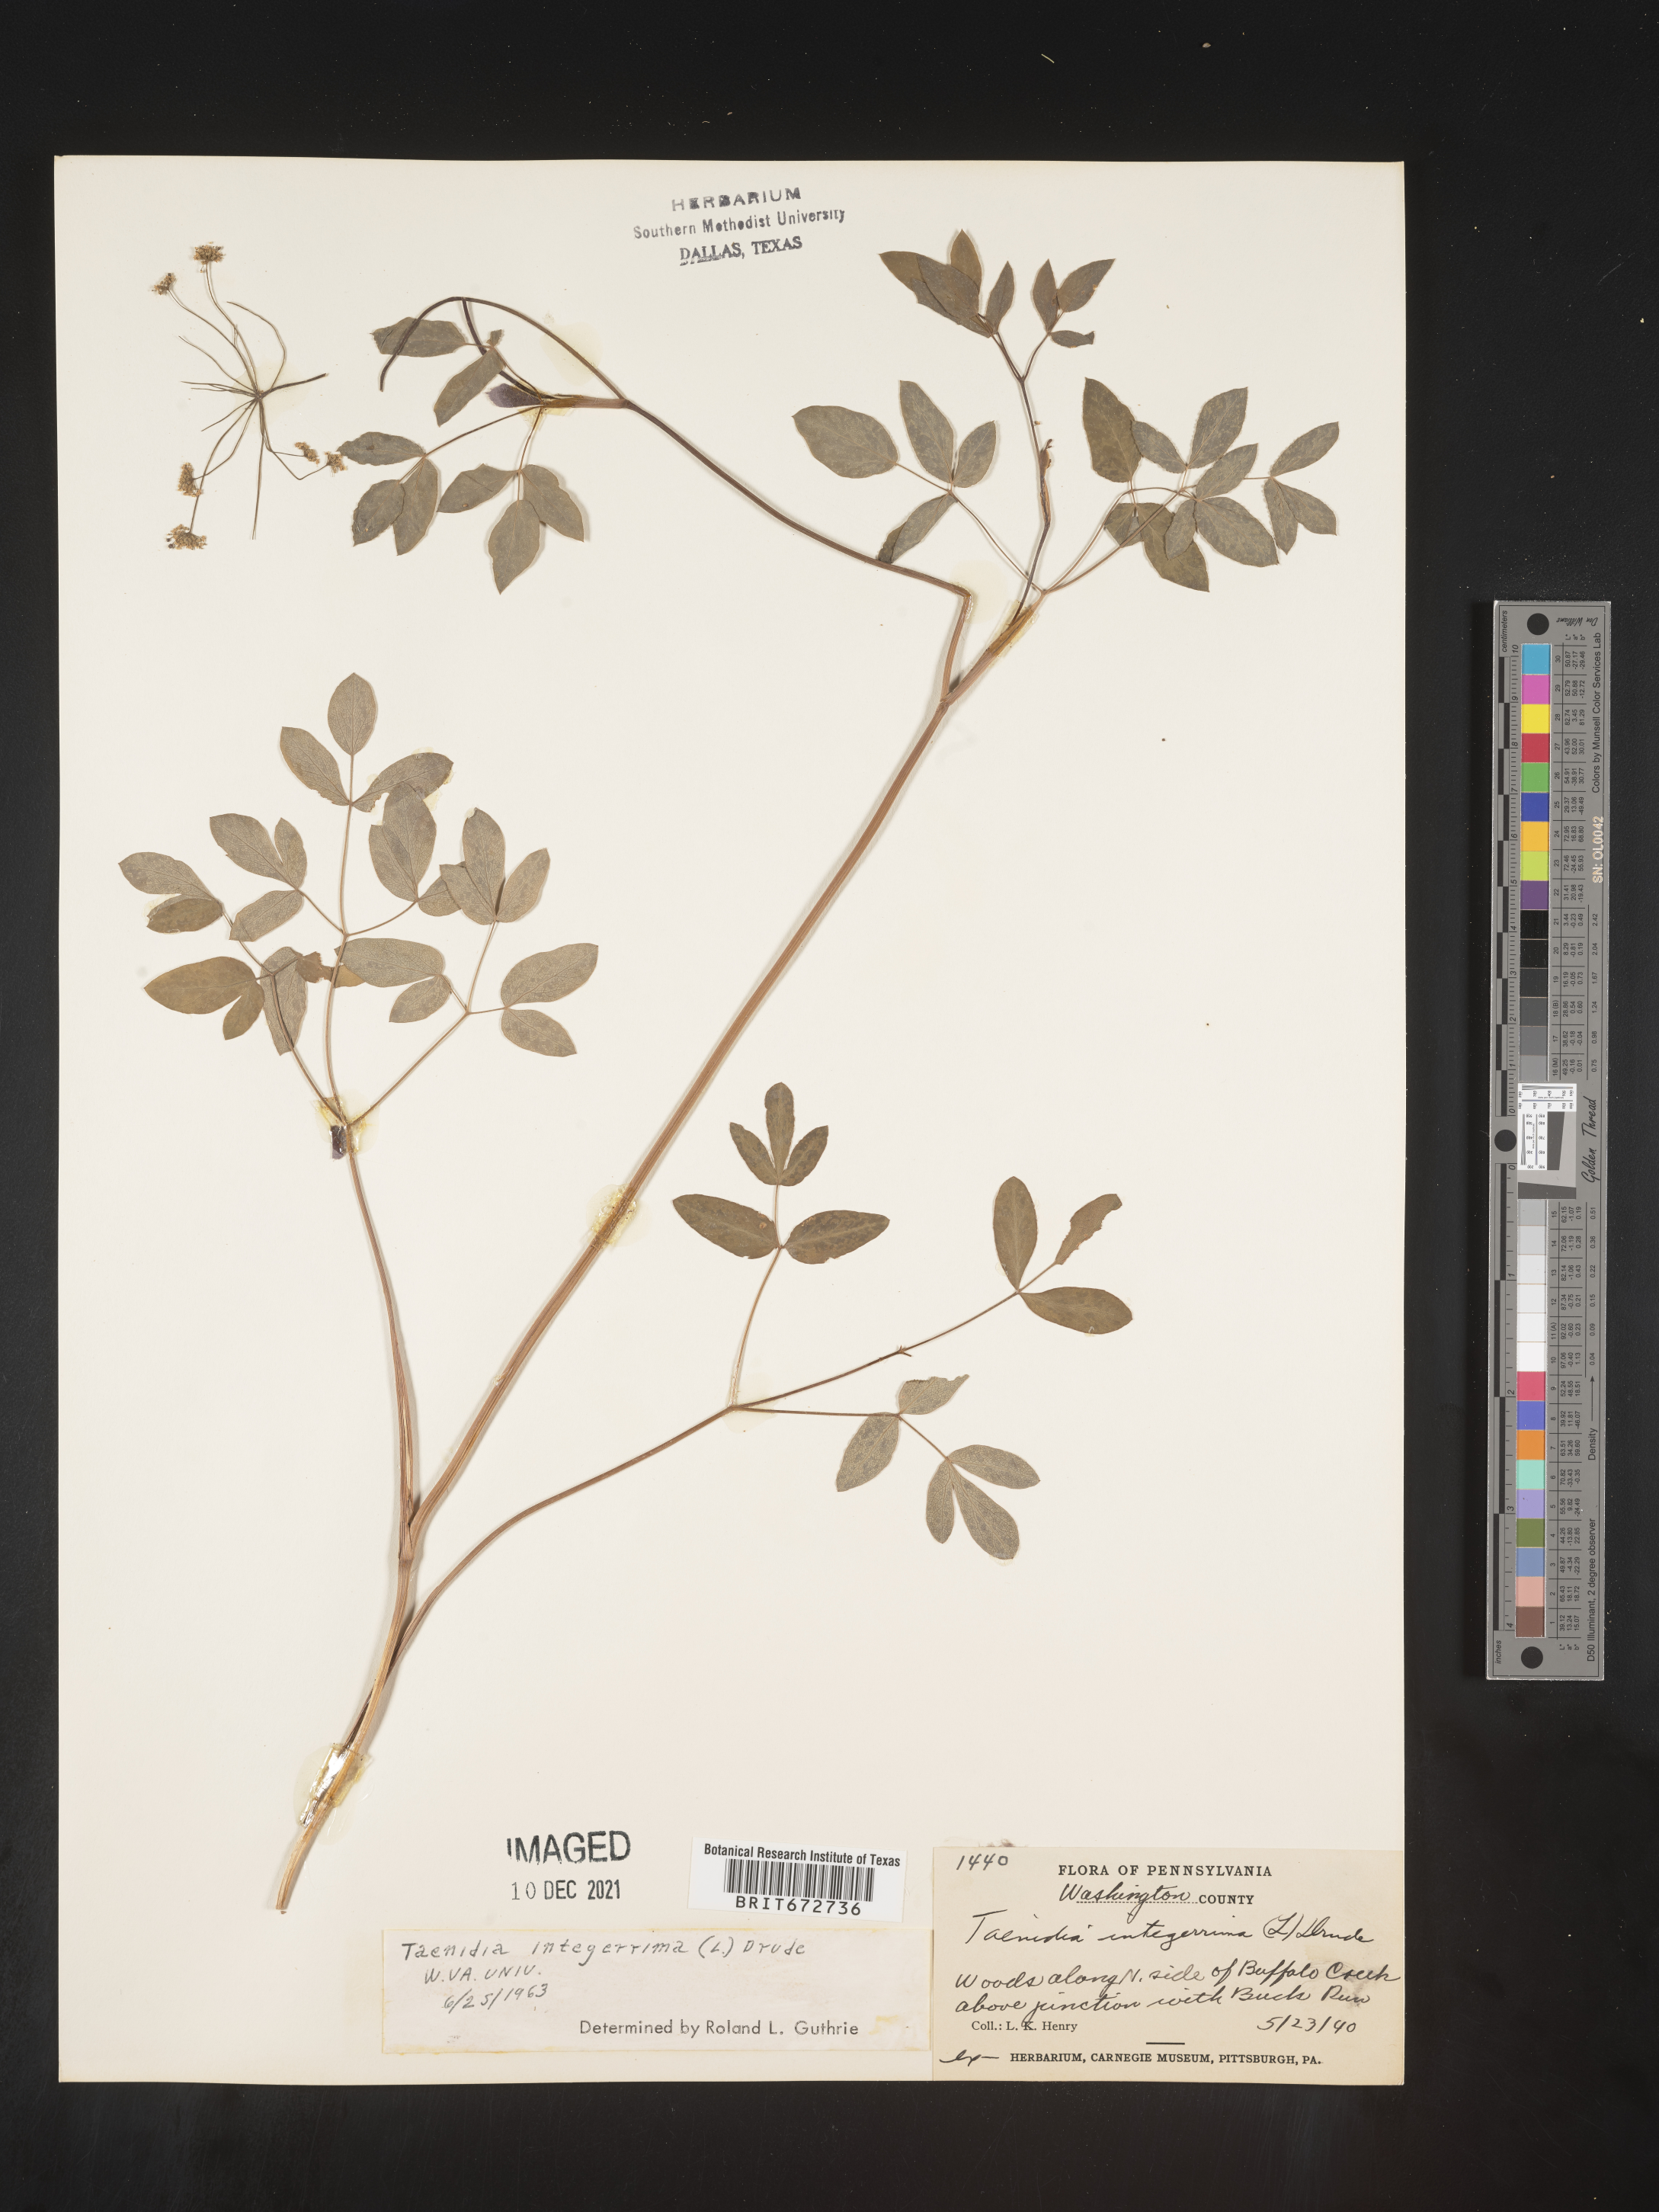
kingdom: Plantae
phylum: Tracheophyta
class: Magnoliopsida
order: Apiales
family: Apiaceae
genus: Taenidia
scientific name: Taenidia
